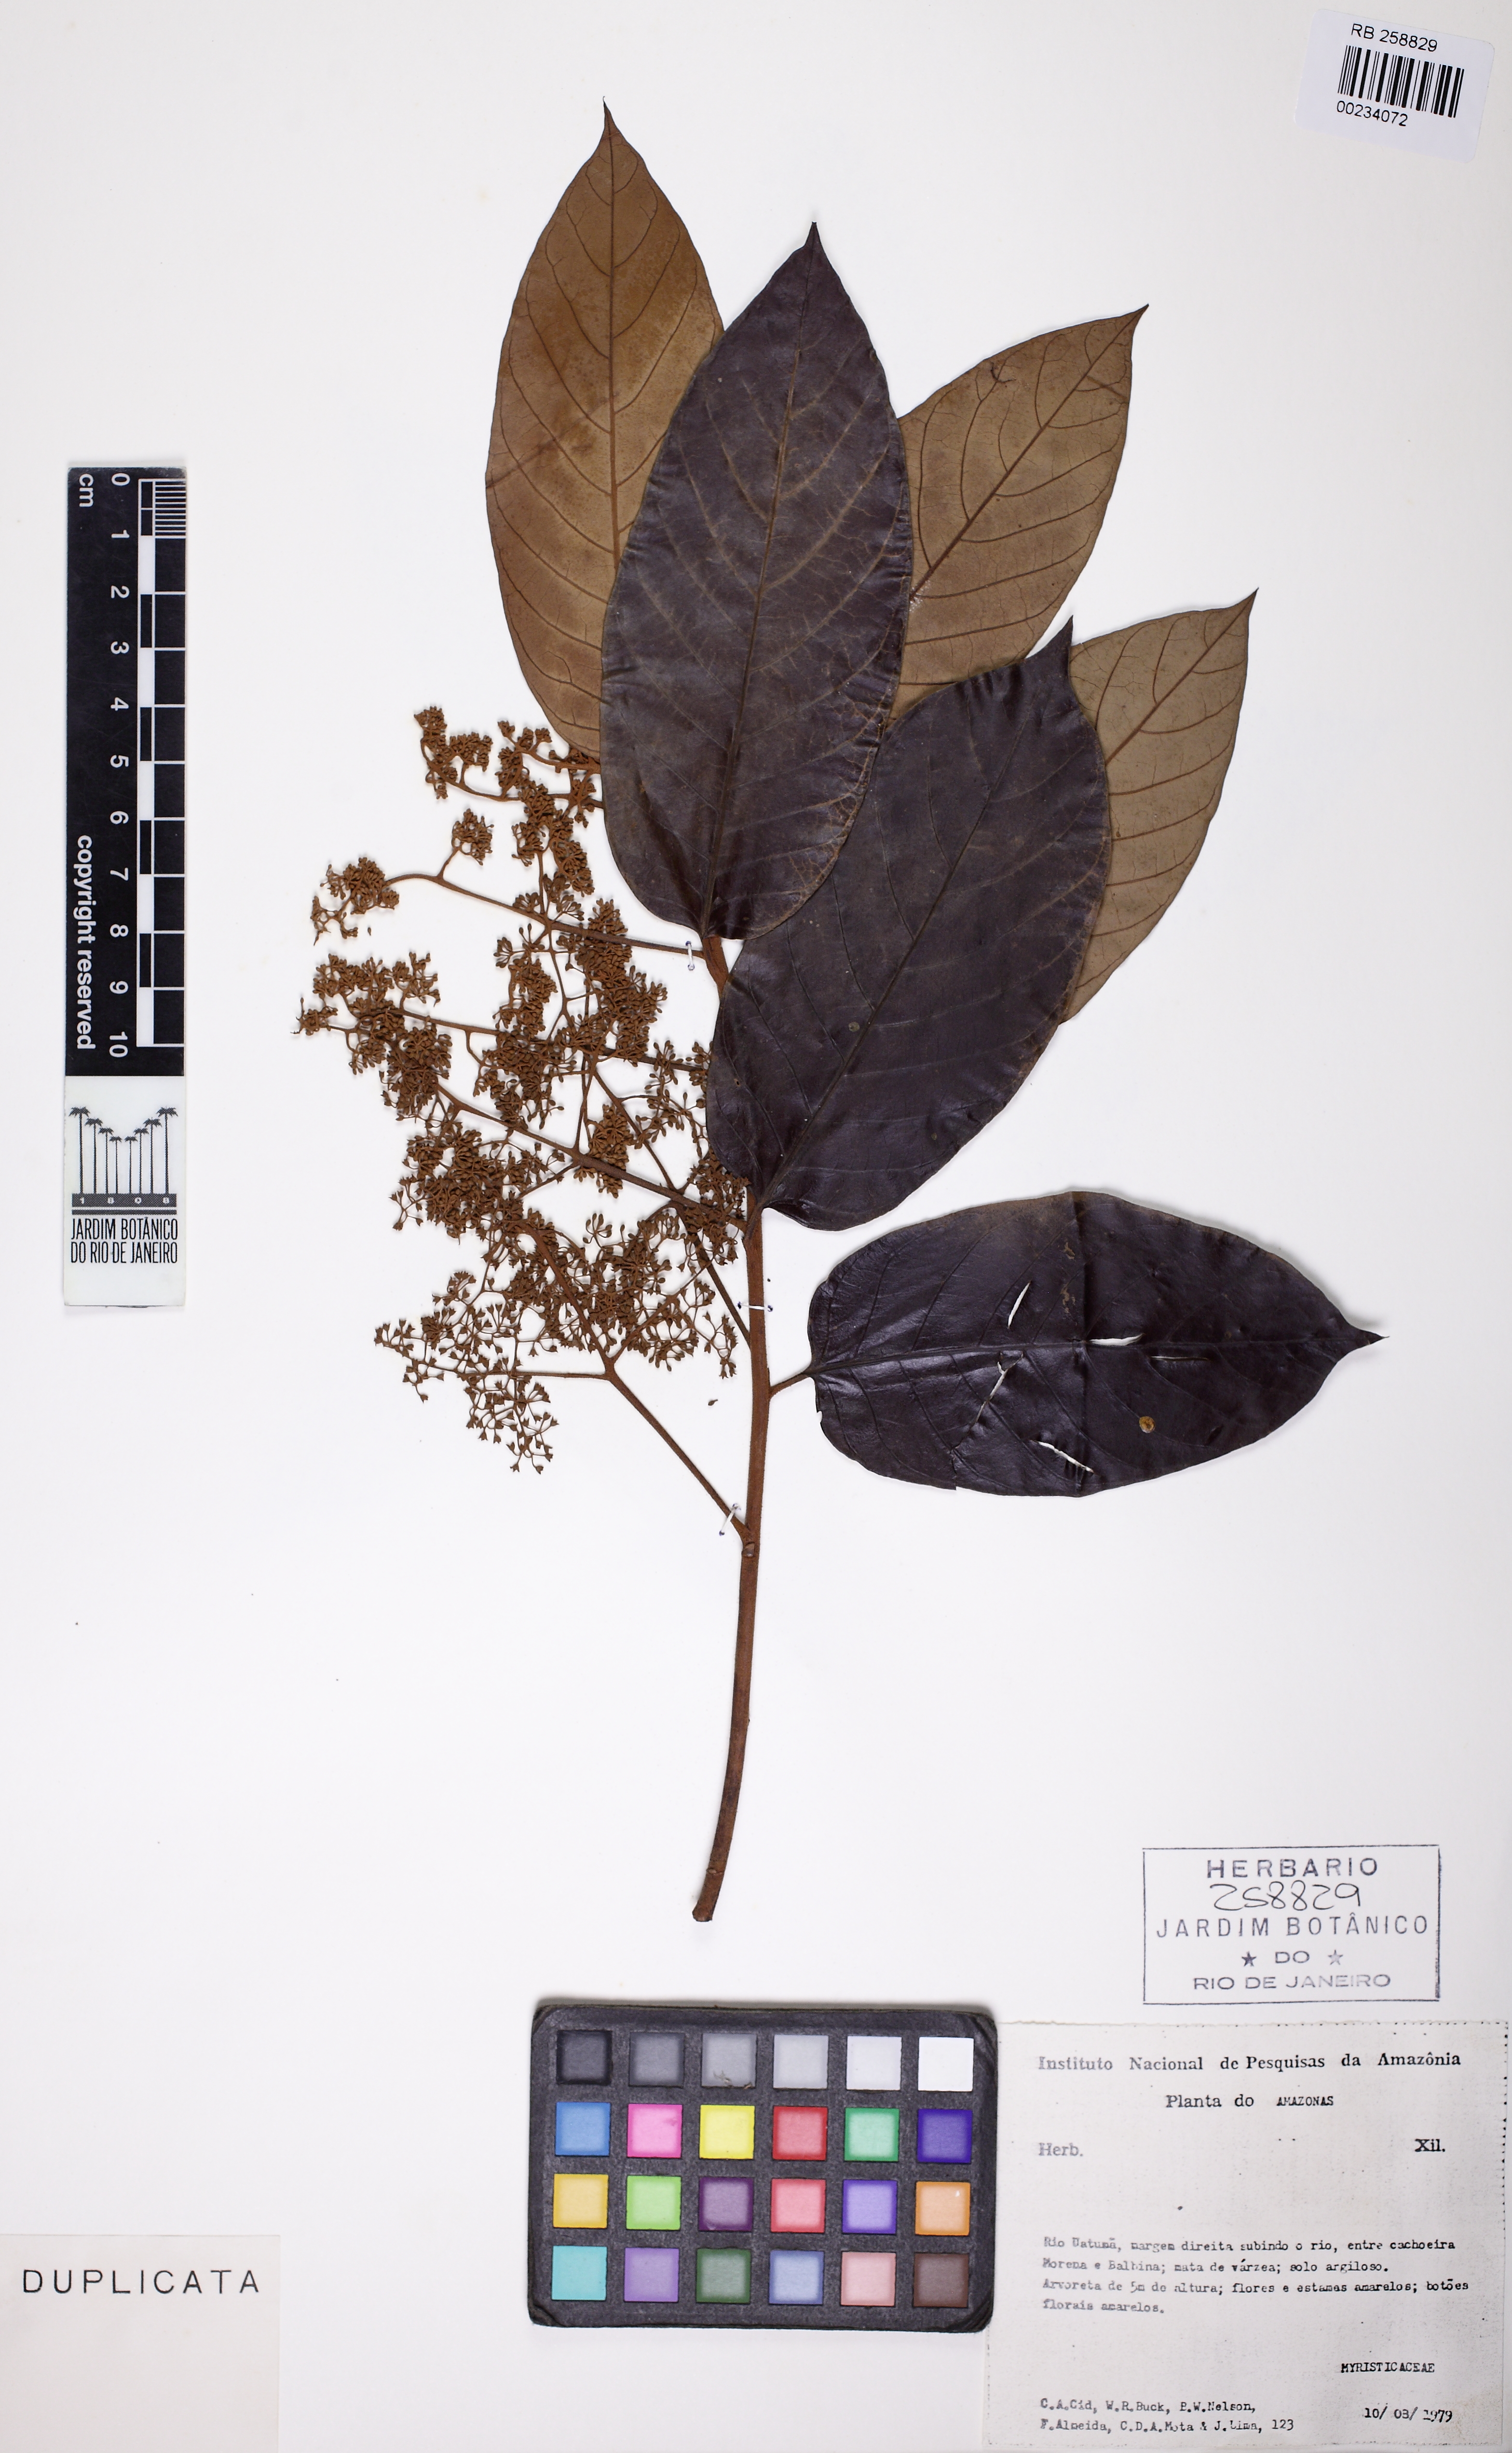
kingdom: Plantae
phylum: Tracheophyta
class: Magnoliopsida
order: Magnoliales
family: Myristicaceae
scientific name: Myristicaceae
